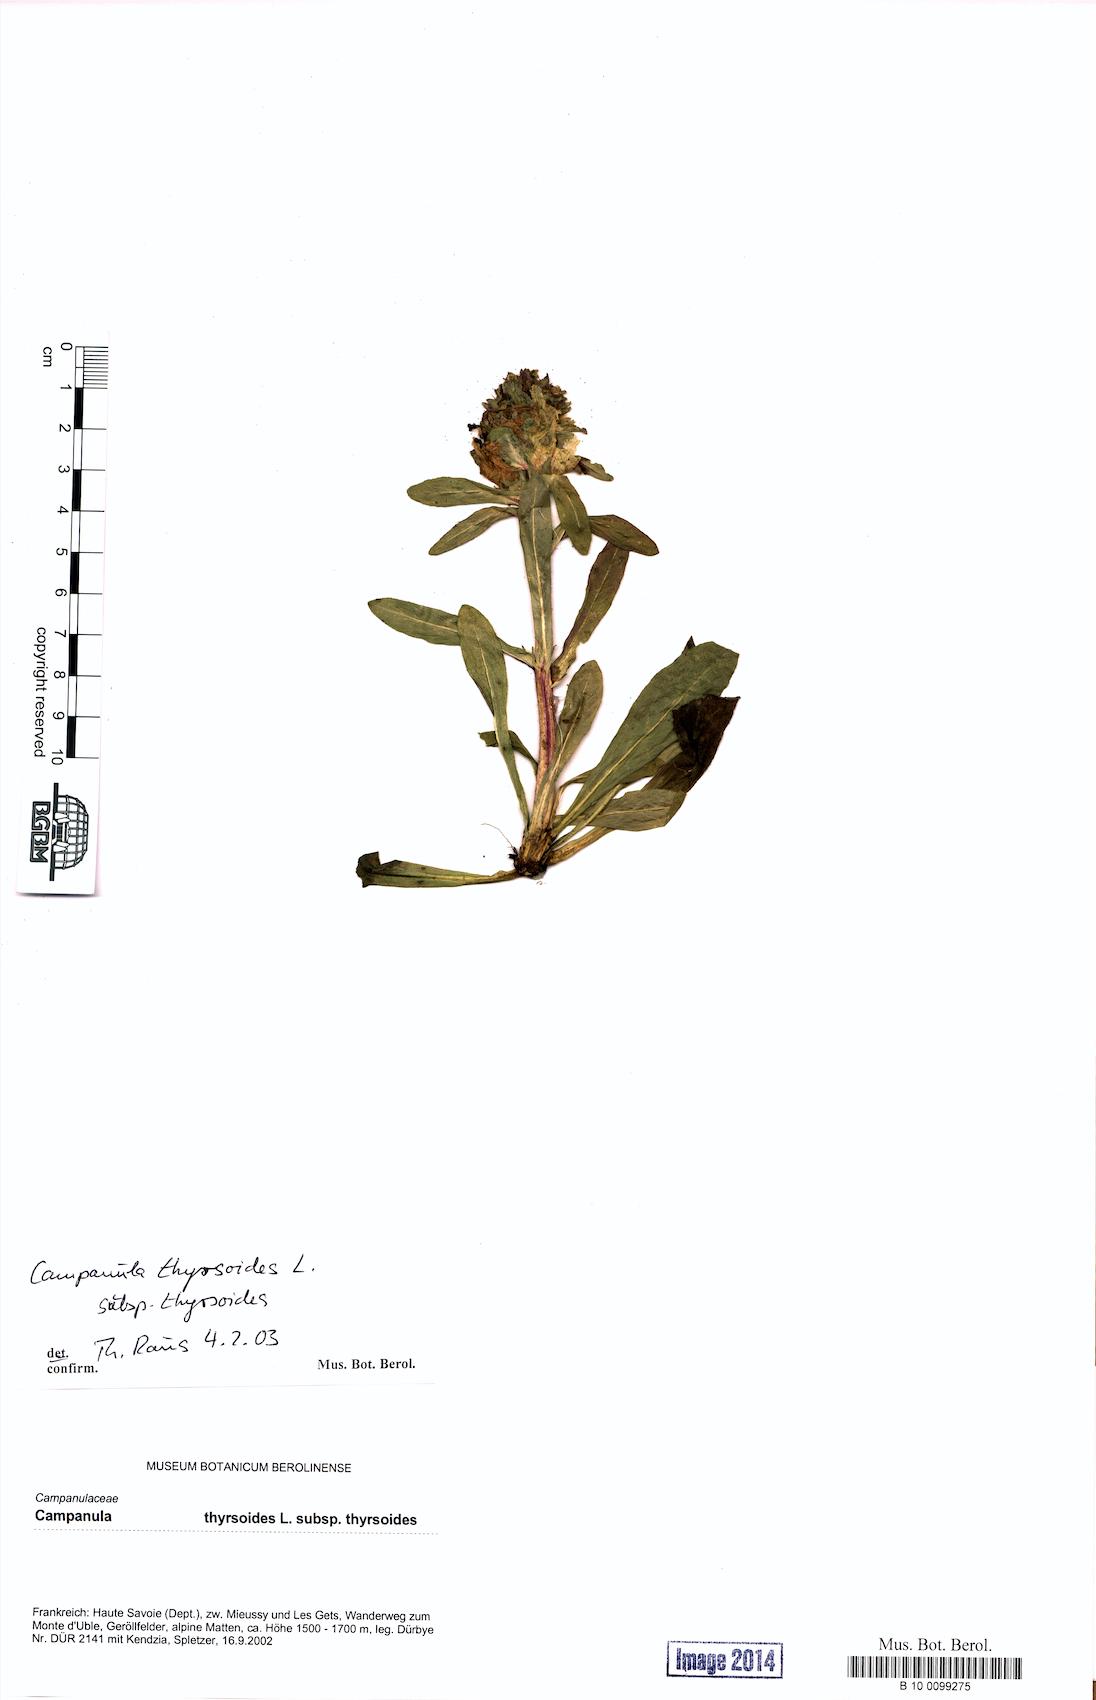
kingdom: Plantae
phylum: Tracheophyta
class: Magnoliopsida
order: Asterales
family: Campanulaceae
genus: Campanula
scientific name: Campanula thyrsoides
